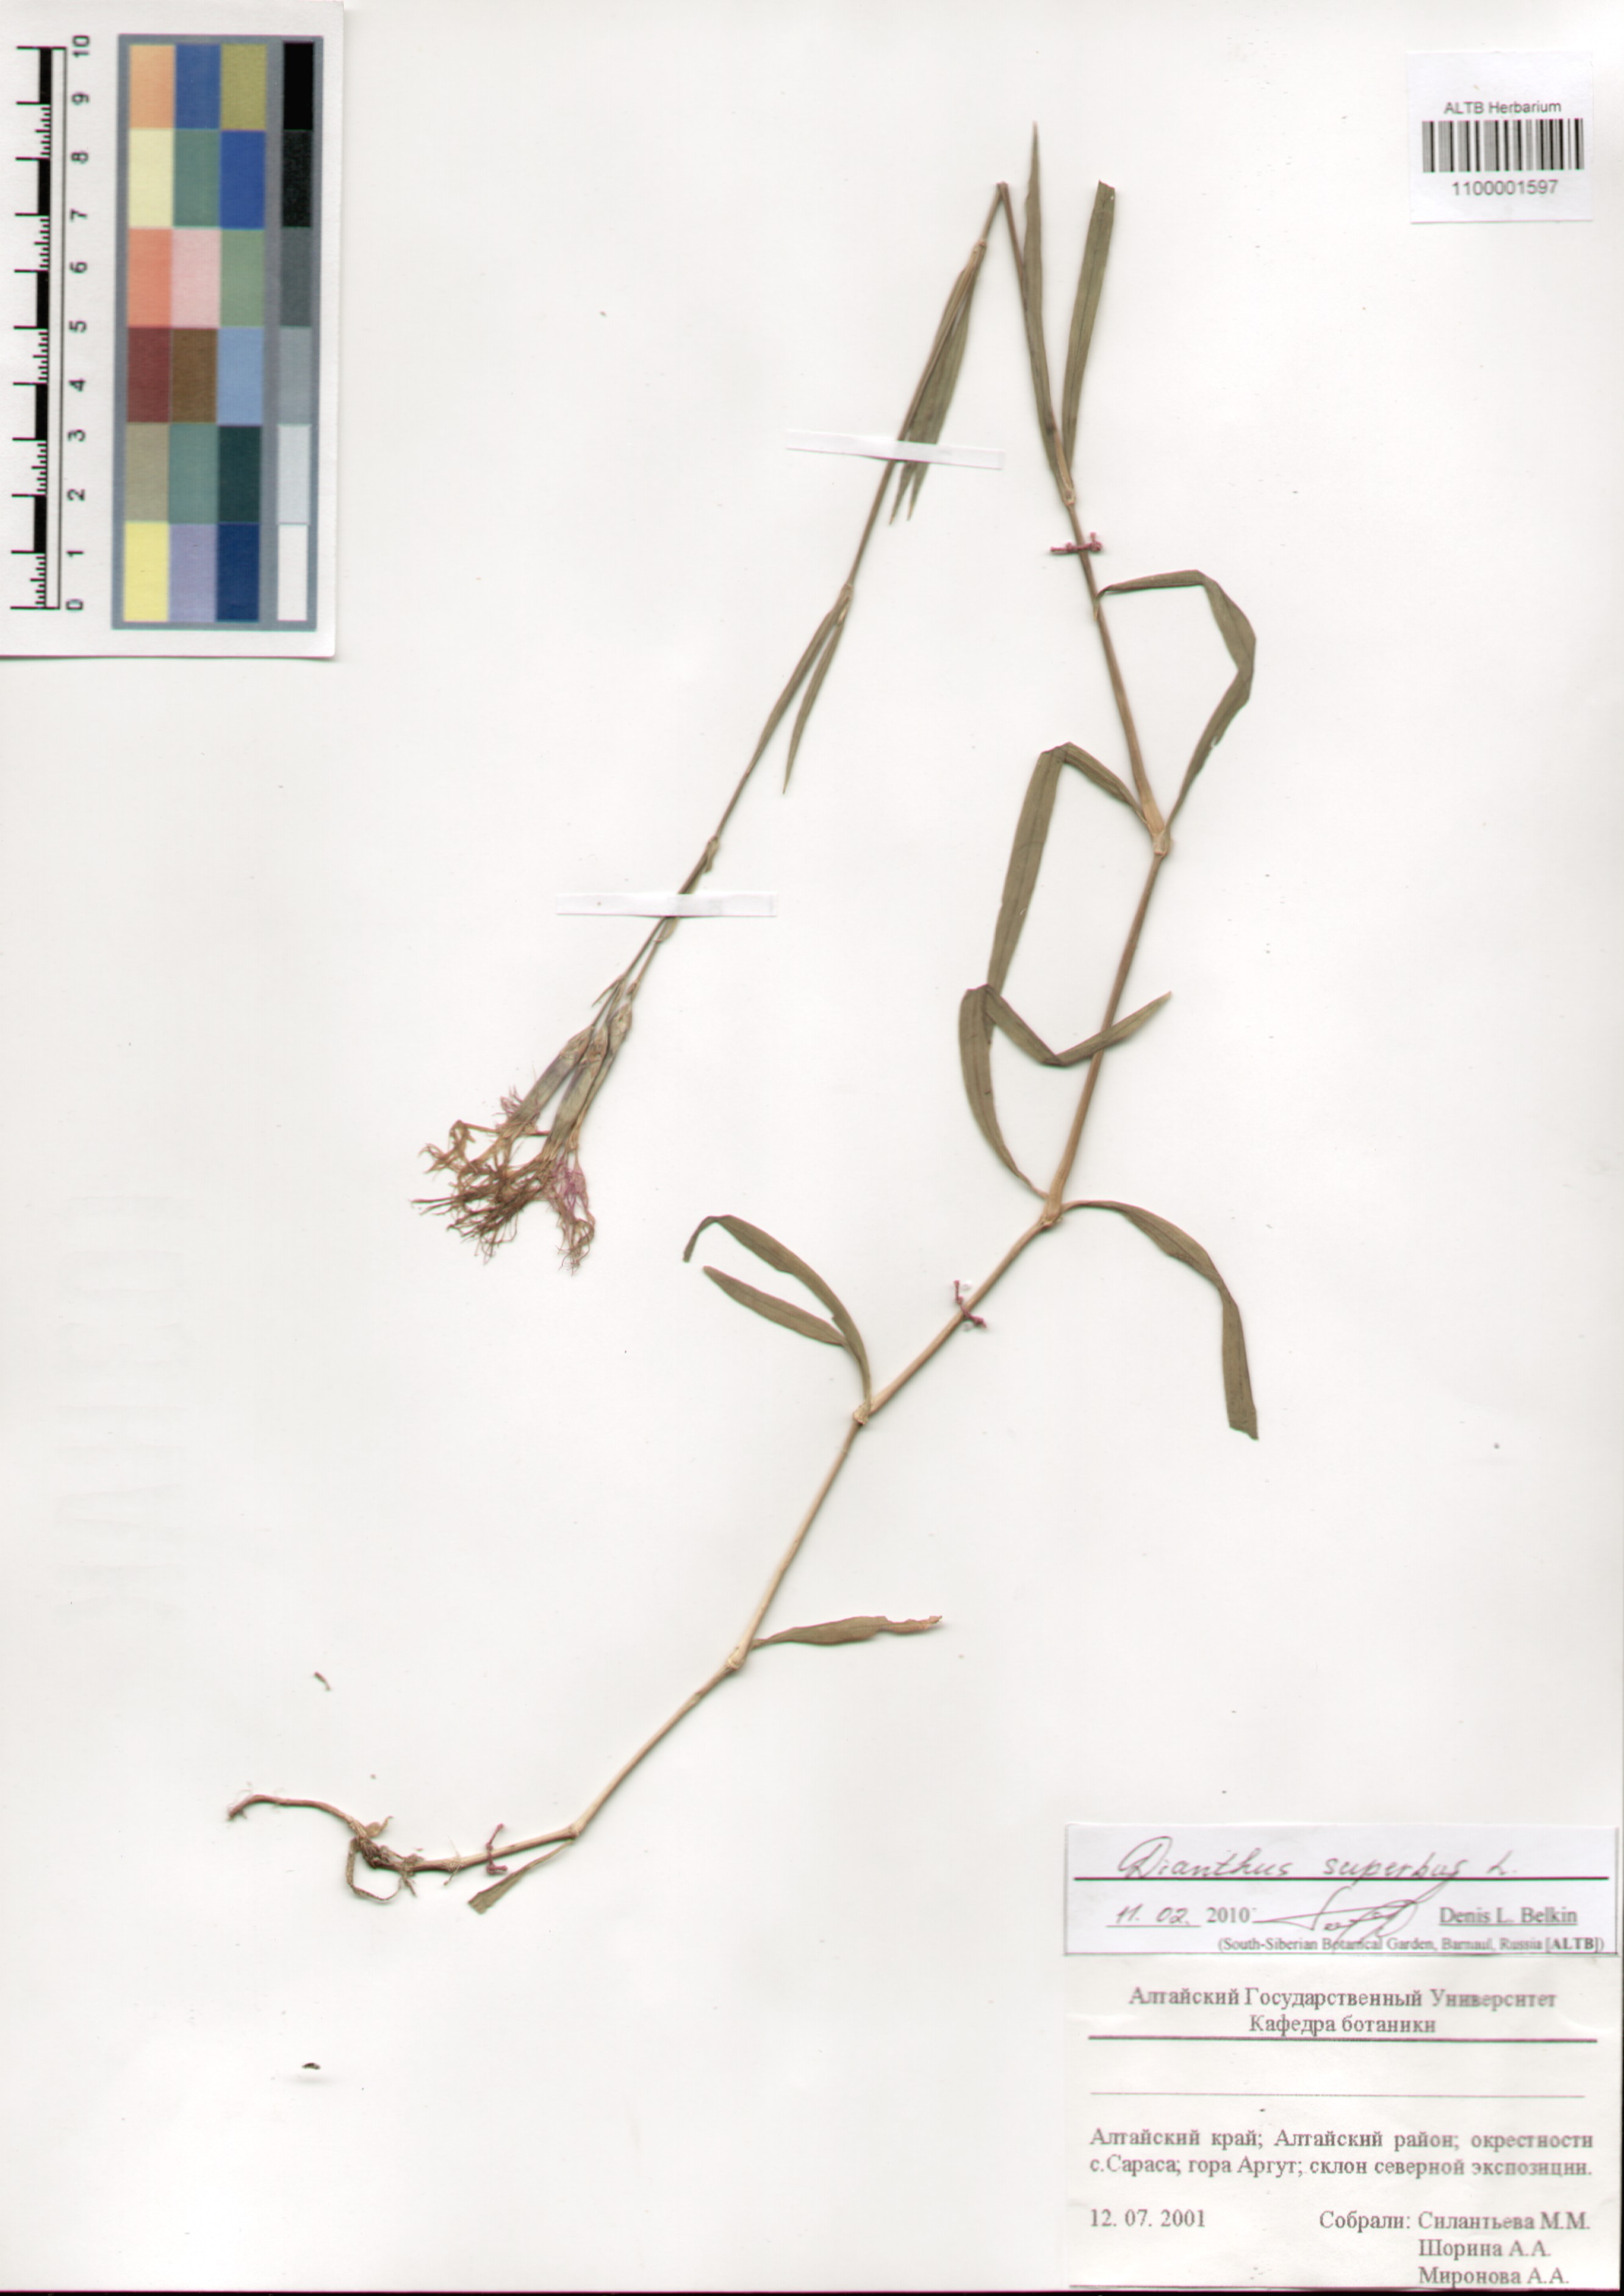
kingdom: Plantae
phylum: Tracheophyta
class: Magnoliopsida
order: Caryophyllales
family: Caryophyllaceae
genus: Dianthus
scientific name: Dianthus superbus
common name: Fringed pink
